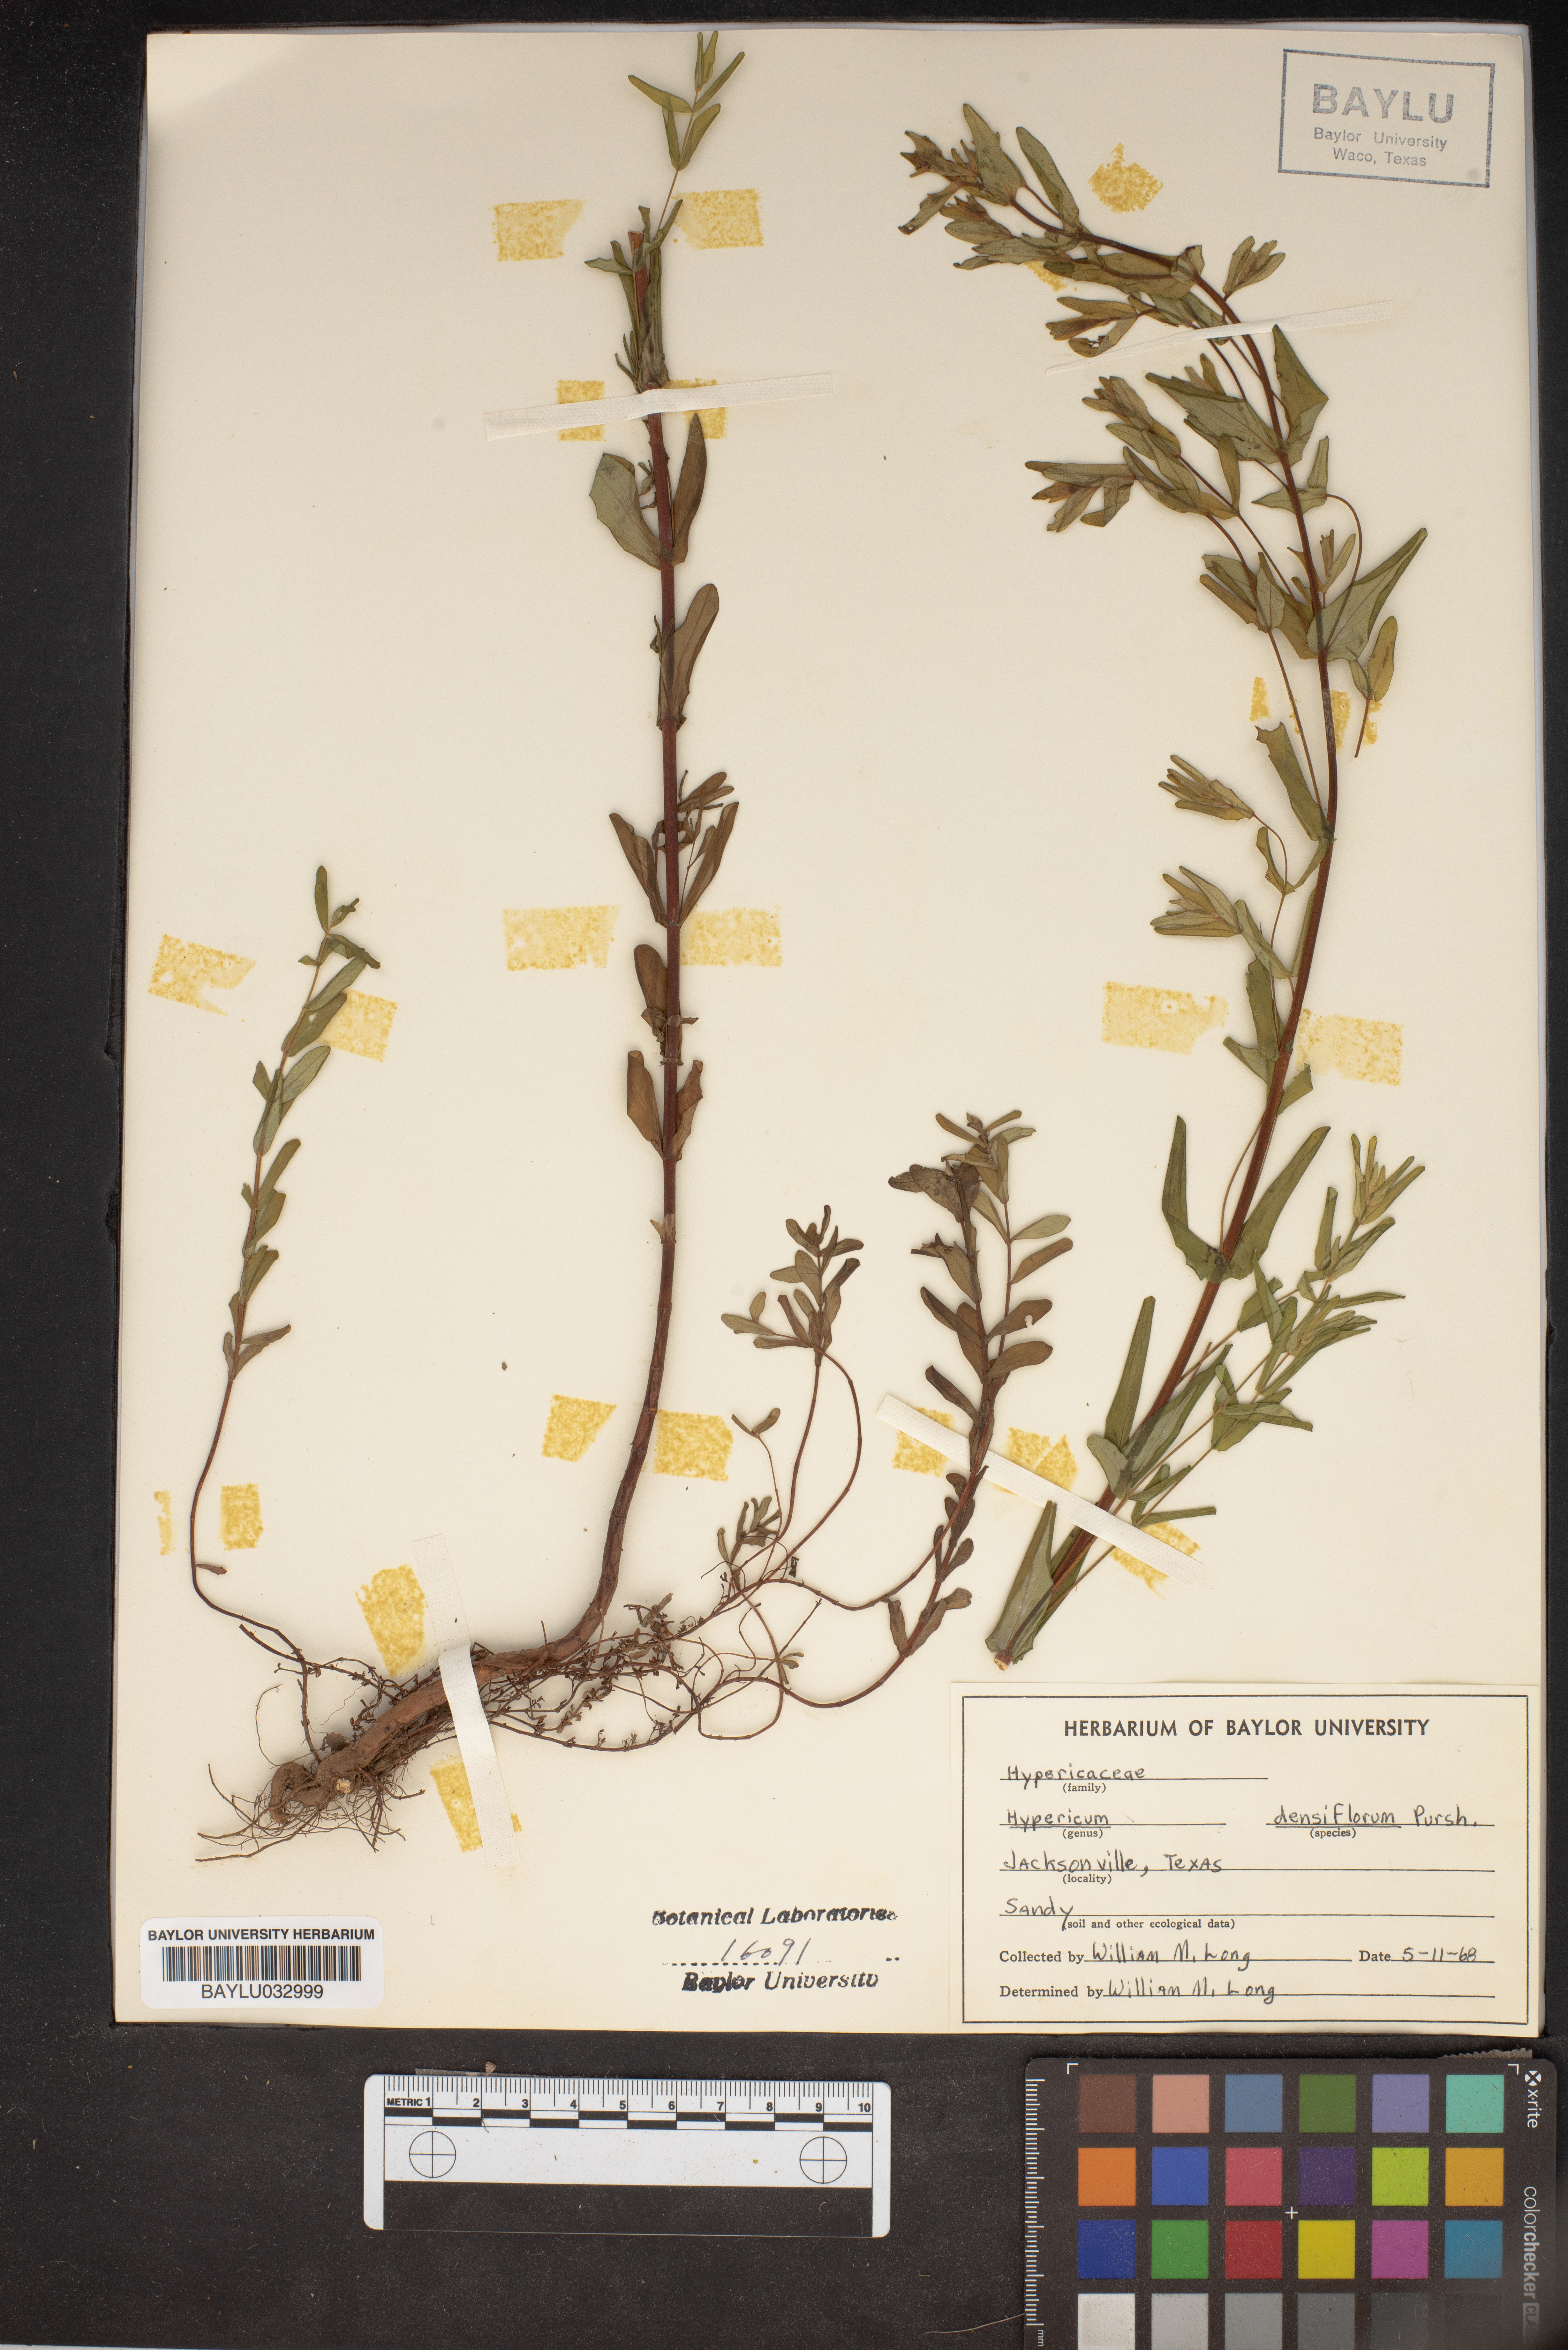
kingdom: Plantae
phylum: Tracheophyta
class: Magnoliopsida
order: Malpighiales
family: Hypericaceae
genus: Hypericum
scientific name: Hypericum densiflorum
